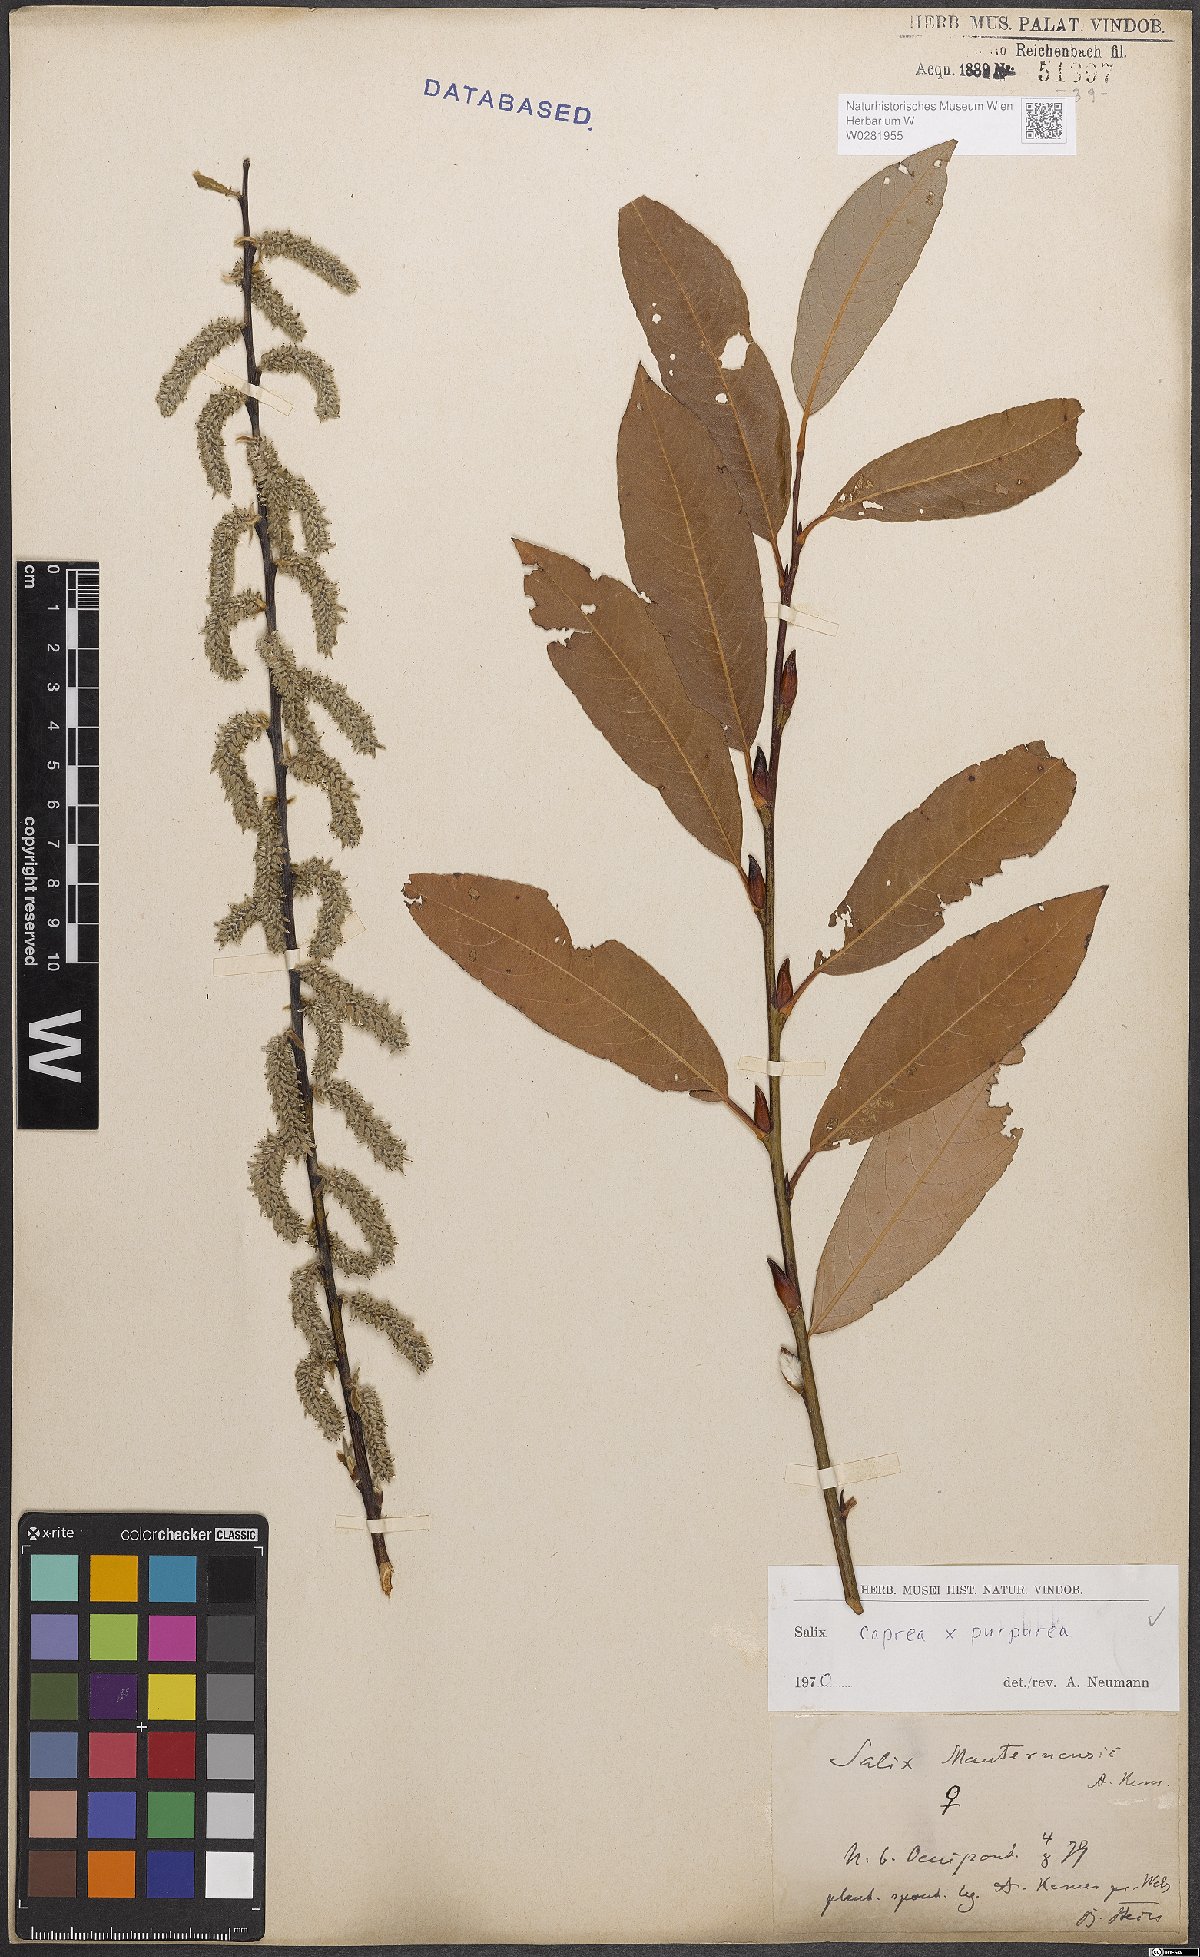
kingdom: Plantae
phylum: Tracheophyta
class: Magnoliopsida
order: Malpighiales
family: Salicaceae
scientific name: Salicaceae
